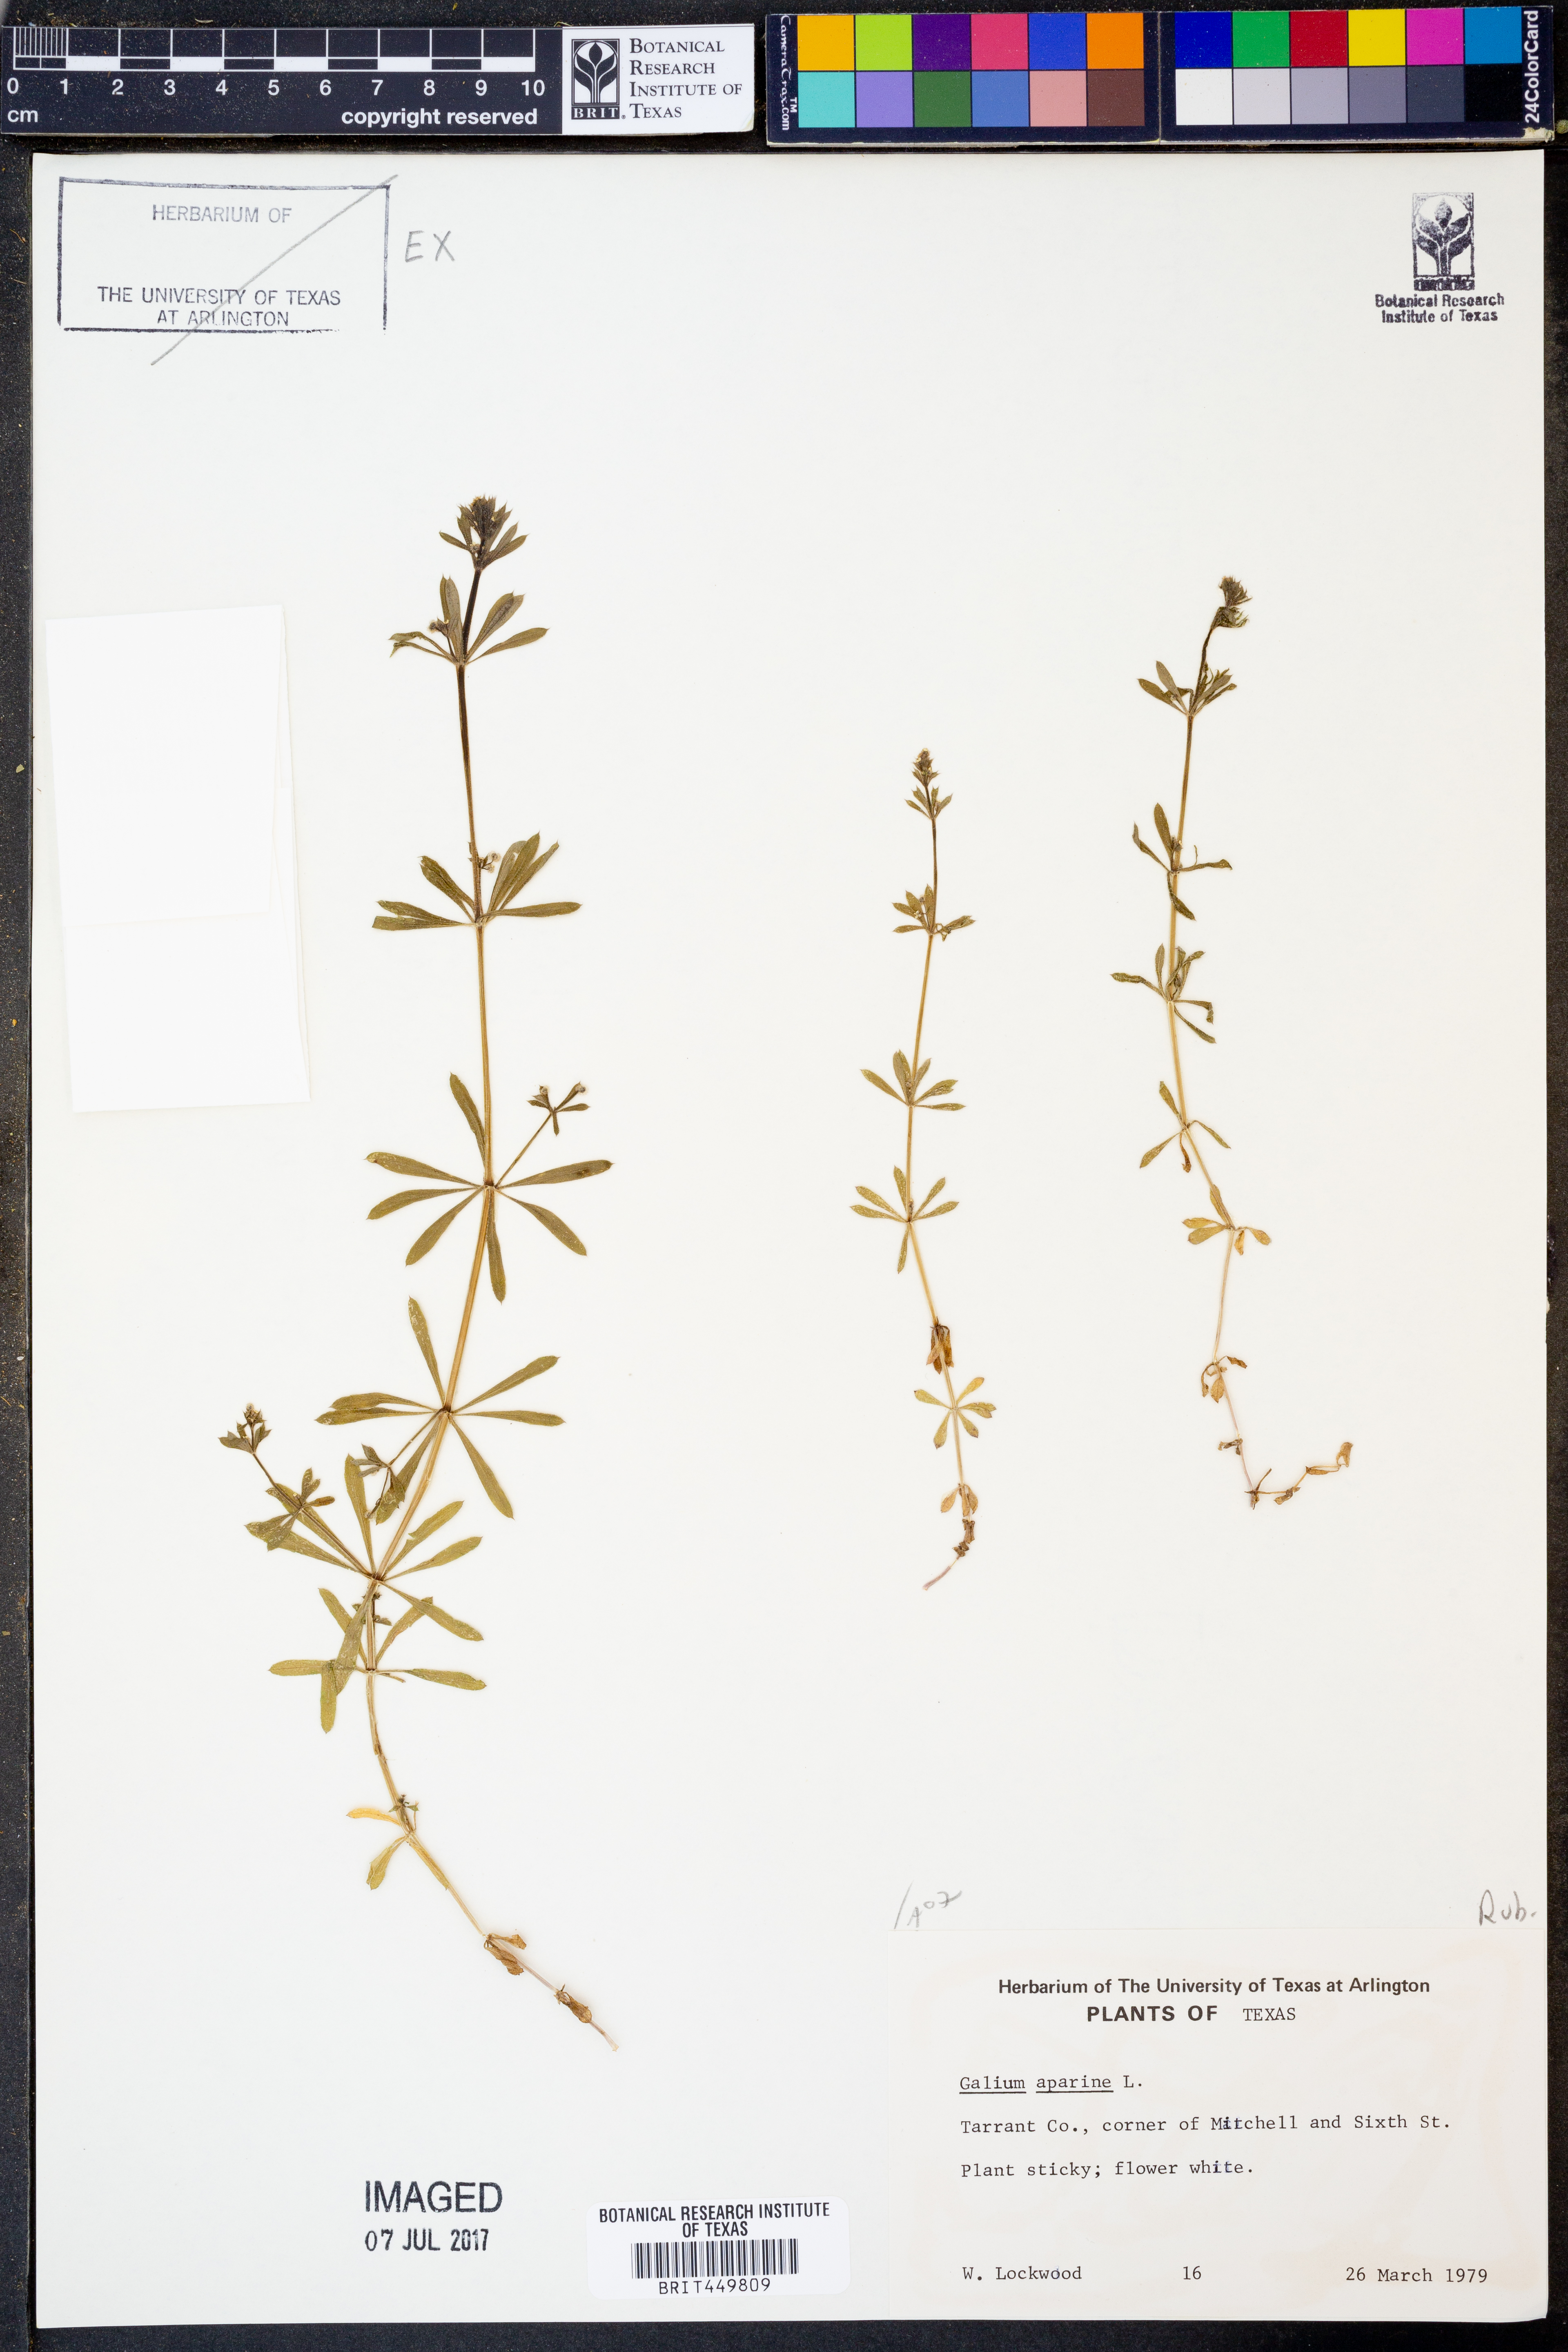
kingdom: Plantae
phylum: Tracheophyta
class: Magnoliopsida
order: Gentianales
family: Rubiaceae
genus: Galium
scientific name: Galium aparine
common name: Cleavers
